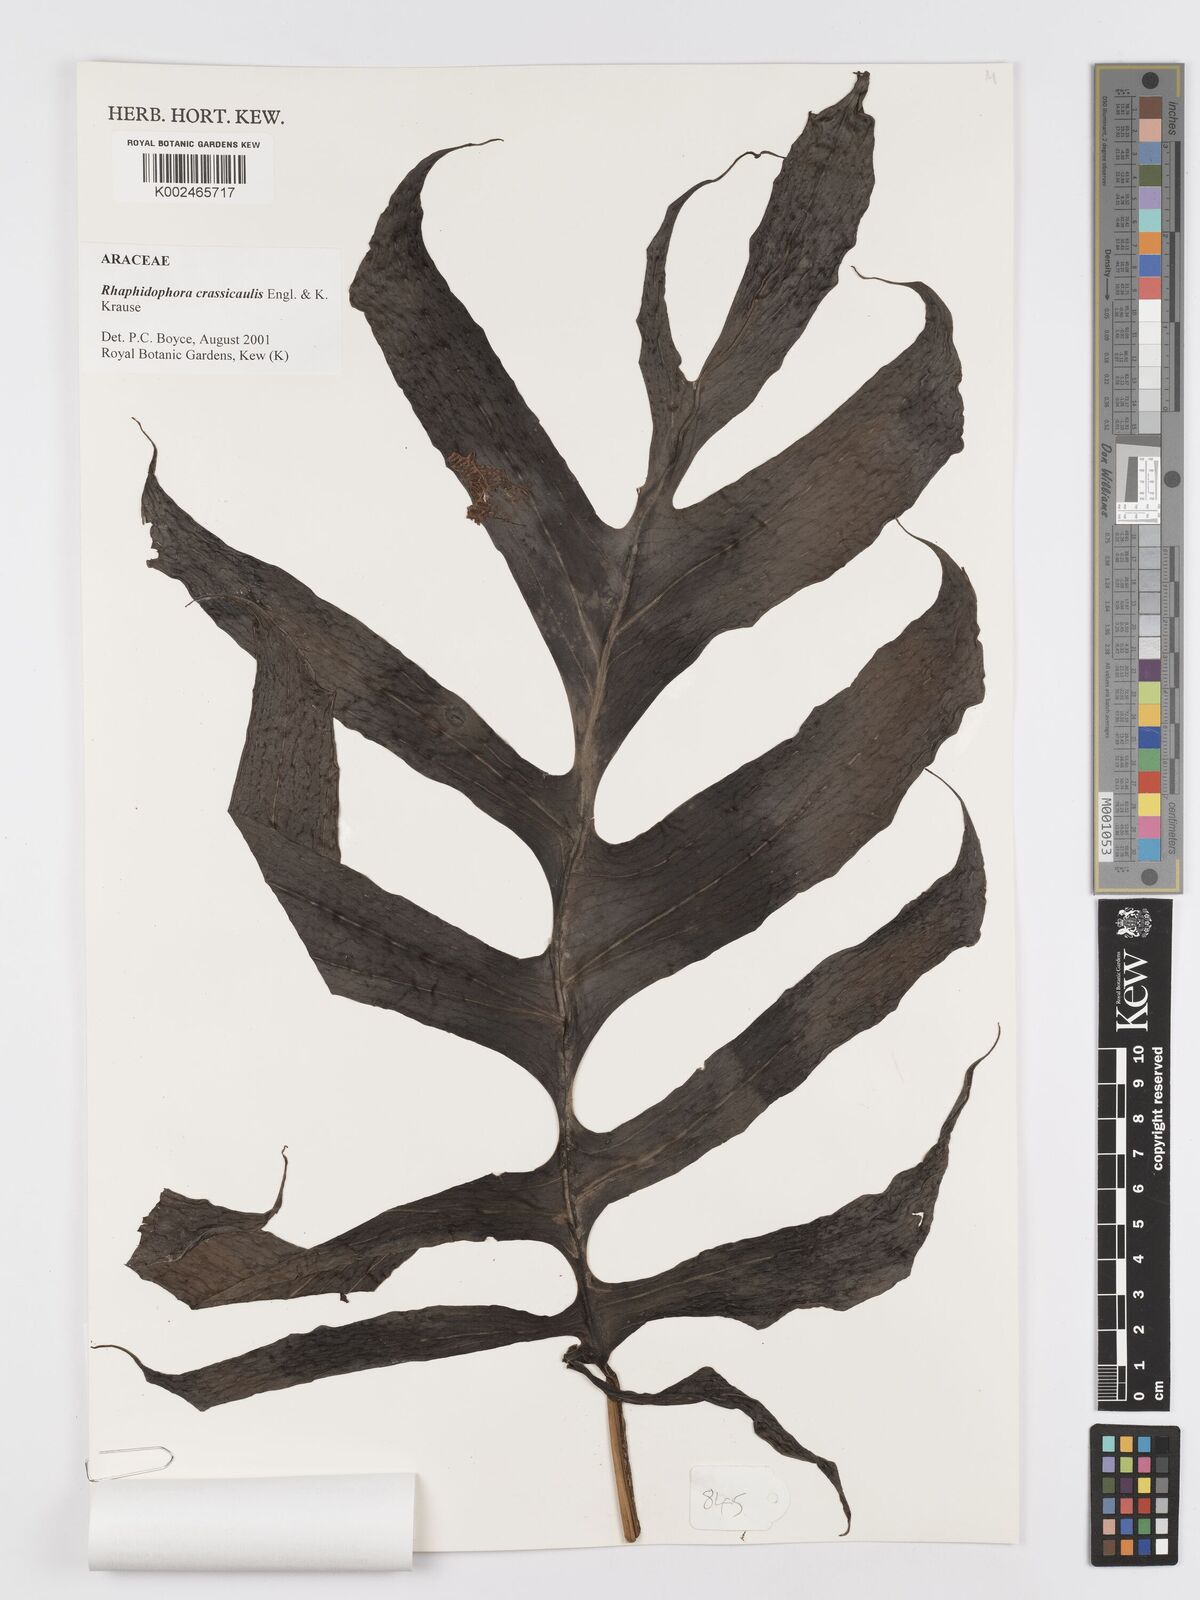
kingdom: Plantae
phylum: Tracheophyta
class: Liliopsida
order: Alismatales
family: Araceae
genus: Rhaphidophora
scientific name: Rhaphidophora crassicaulis
